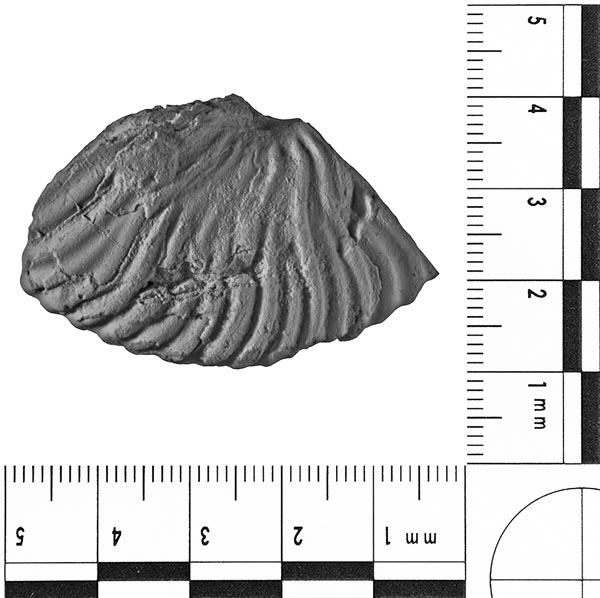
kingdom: Animalia
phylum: Mollusca
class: Cephalopoda
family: Parahoplitidae
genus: Hypacanthoplites
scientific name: Hypacanthoplites
